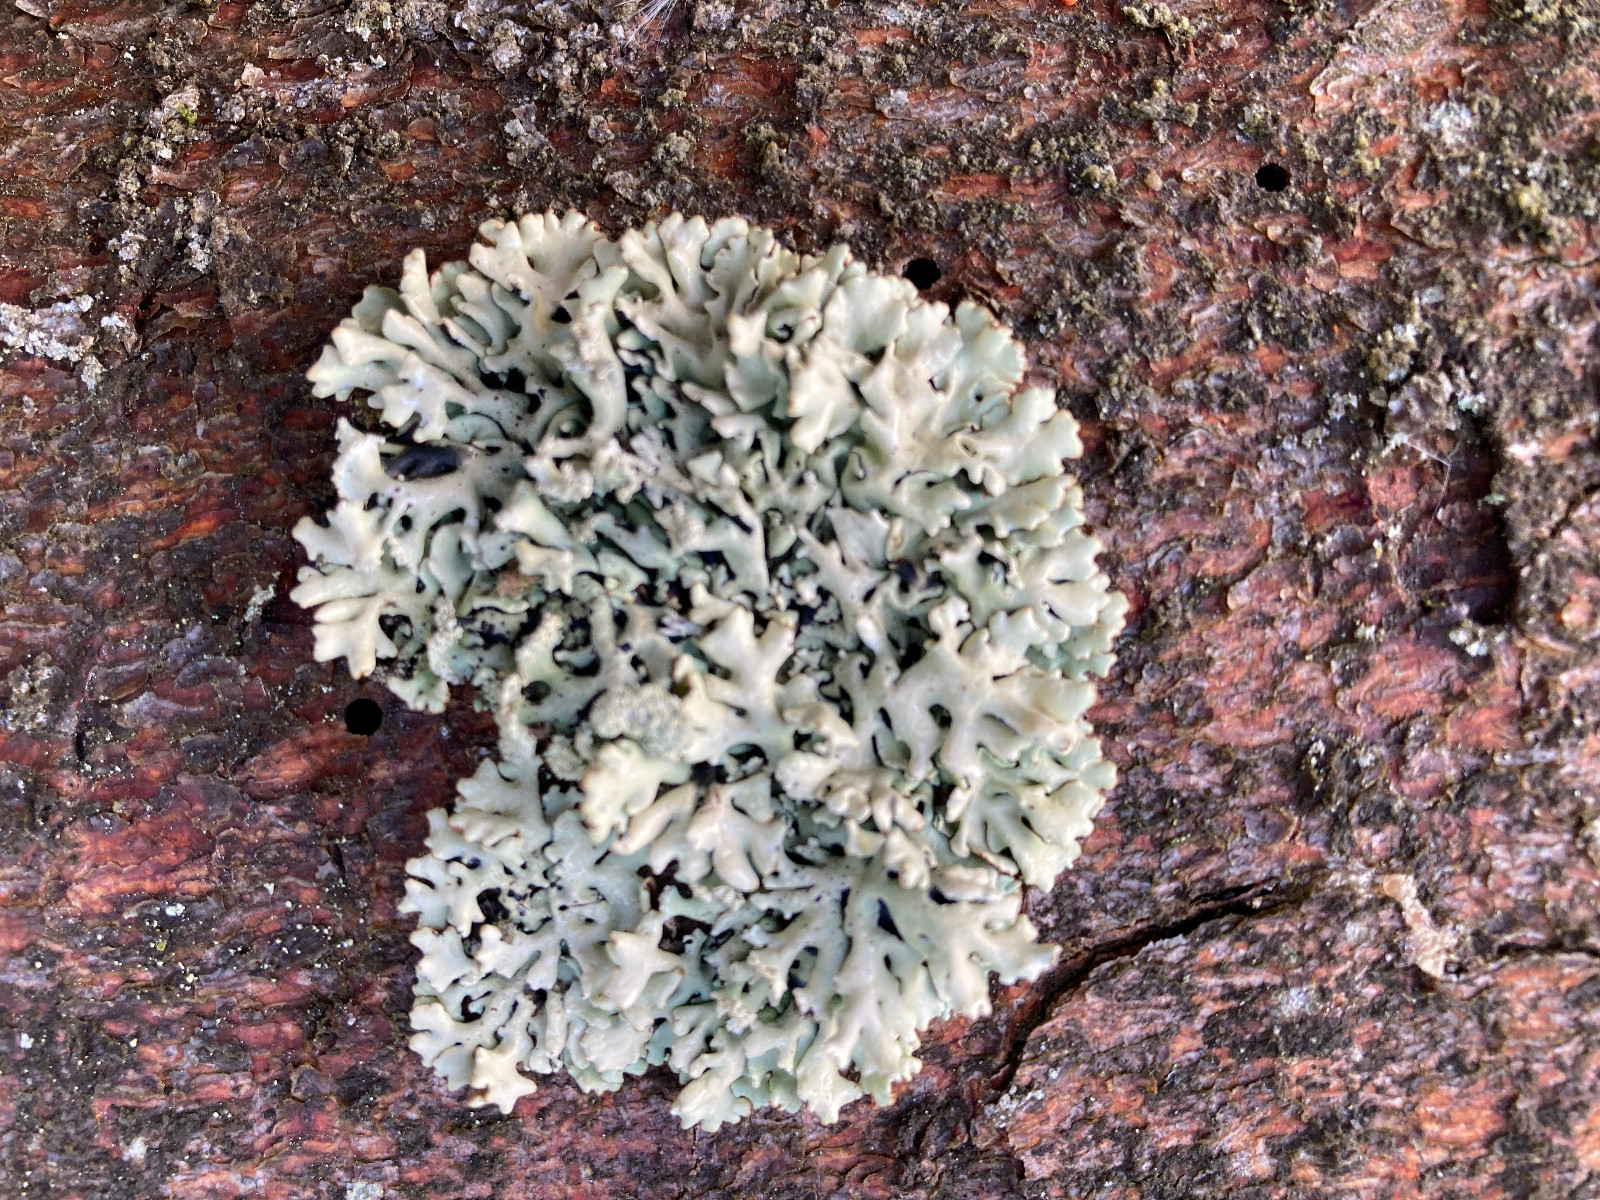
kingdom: Fungi
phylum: Ascomycota
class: Lecanoromycetes
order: Lecanorales
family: Parmeliaceae
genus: Hypogymnia
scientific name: Hypogymnia physodes
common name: almindelig kvistlav
